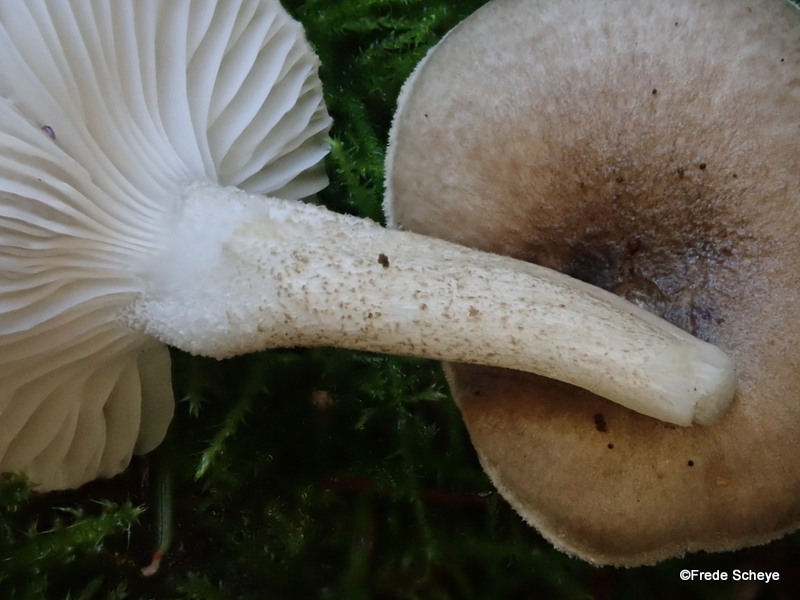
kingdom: Fungi
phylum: Basidiomycota
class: Agaricomycetes
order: Agaricales
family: Hygrophoraceae
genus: Hygrophorus
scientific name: Hygrophorus pustulatus
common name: mørkprikket sneglehat
